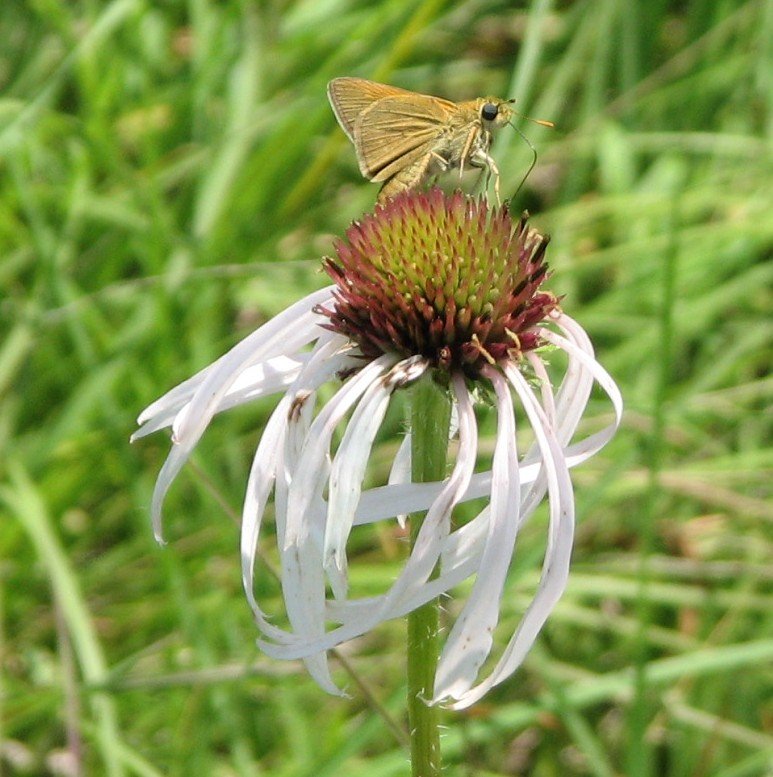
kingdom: Animalia
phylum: Arthropoda
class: Insecta
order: Lepidoptera
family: Hesperiidae
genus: Polites
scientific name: Polites themistocles
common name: Tawny-edged Skipper
